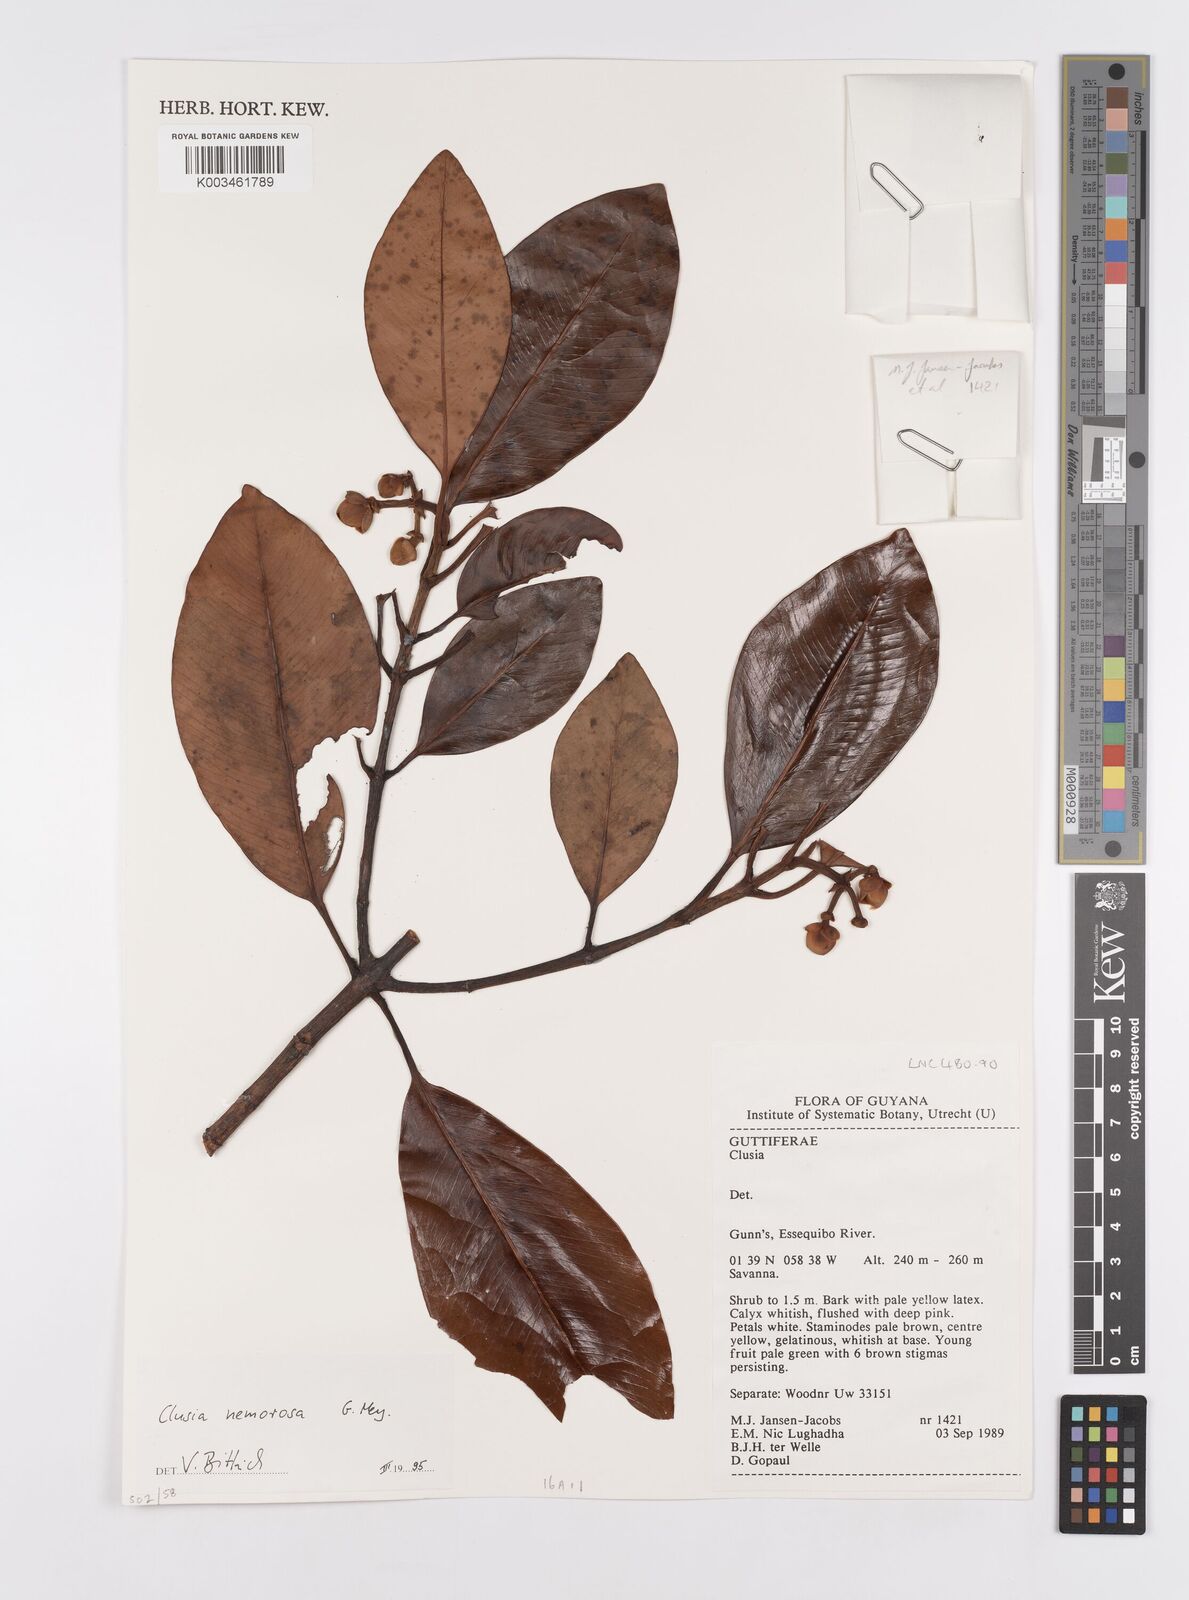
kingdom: Plantae
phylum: Tracheophyta
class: Magnoliopsida
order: Malpighiales
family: Clusiaceae
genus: Clusia
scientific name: Clusia nemorosa
